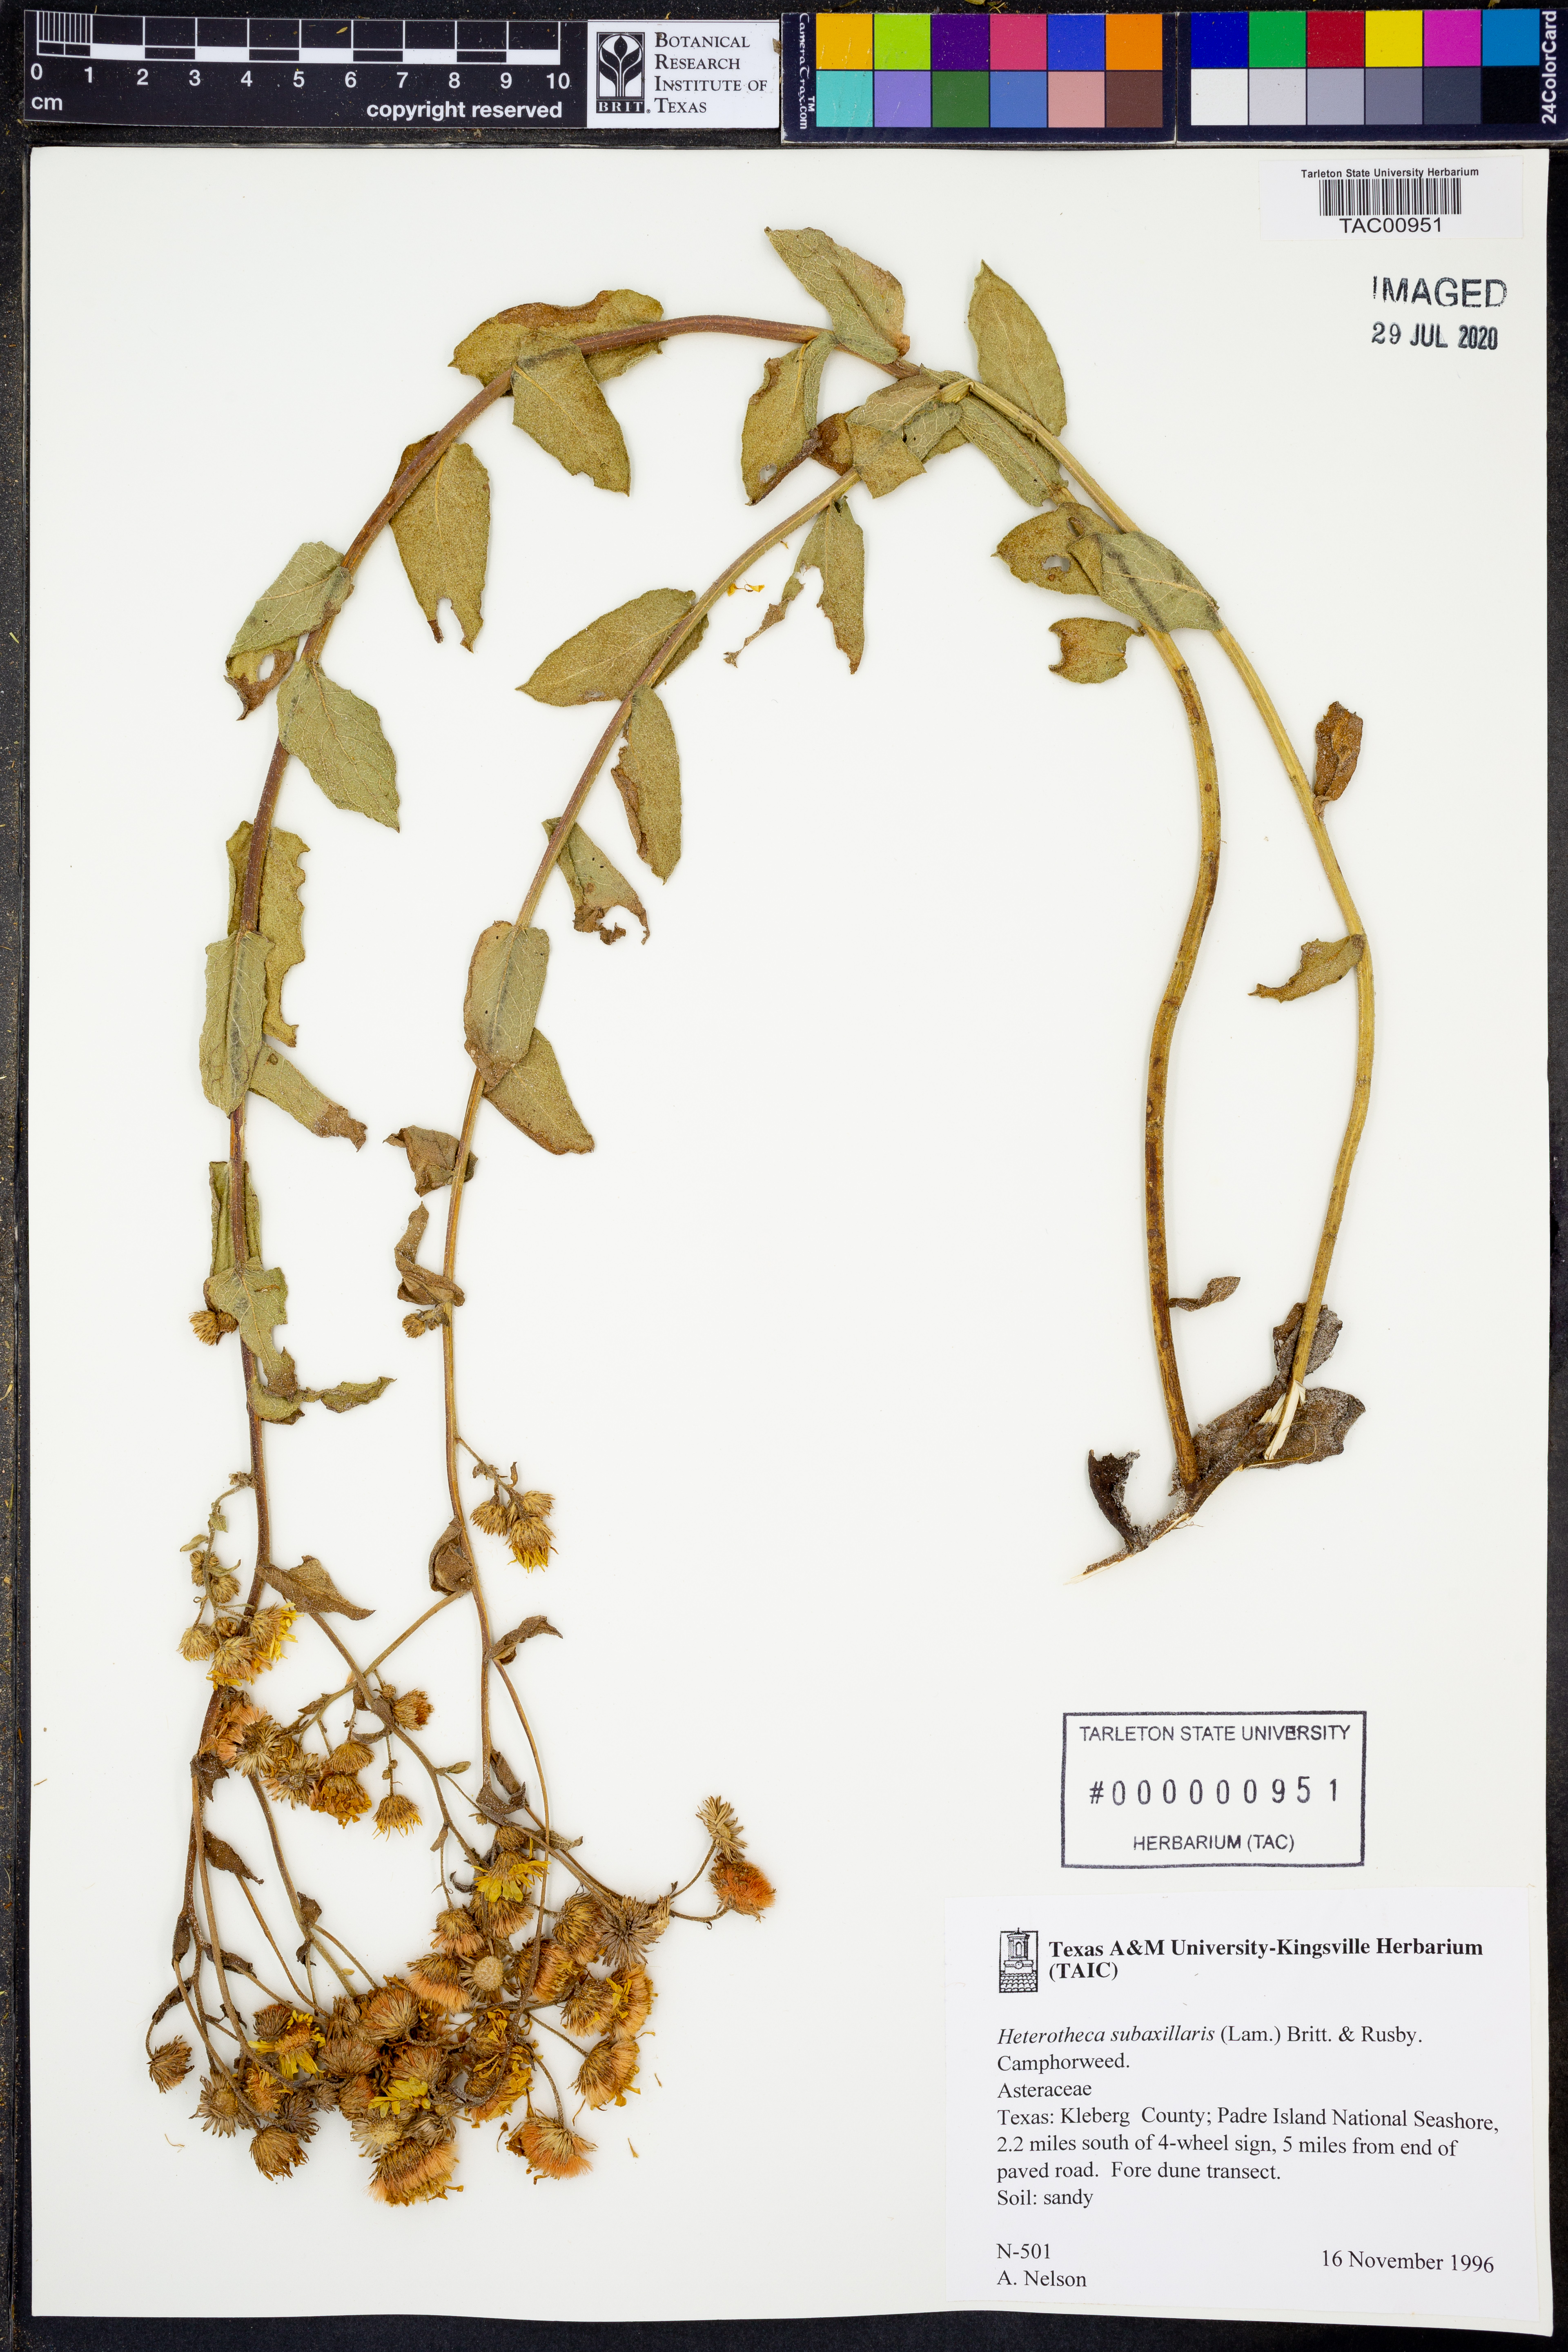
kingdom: Plantae
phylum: Tracheophyta
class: Magnoliopsida
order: Asterales
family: Asteraceae
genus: Heterotheca
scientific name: Heterotheca subaxillaris
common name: Camphorweed
